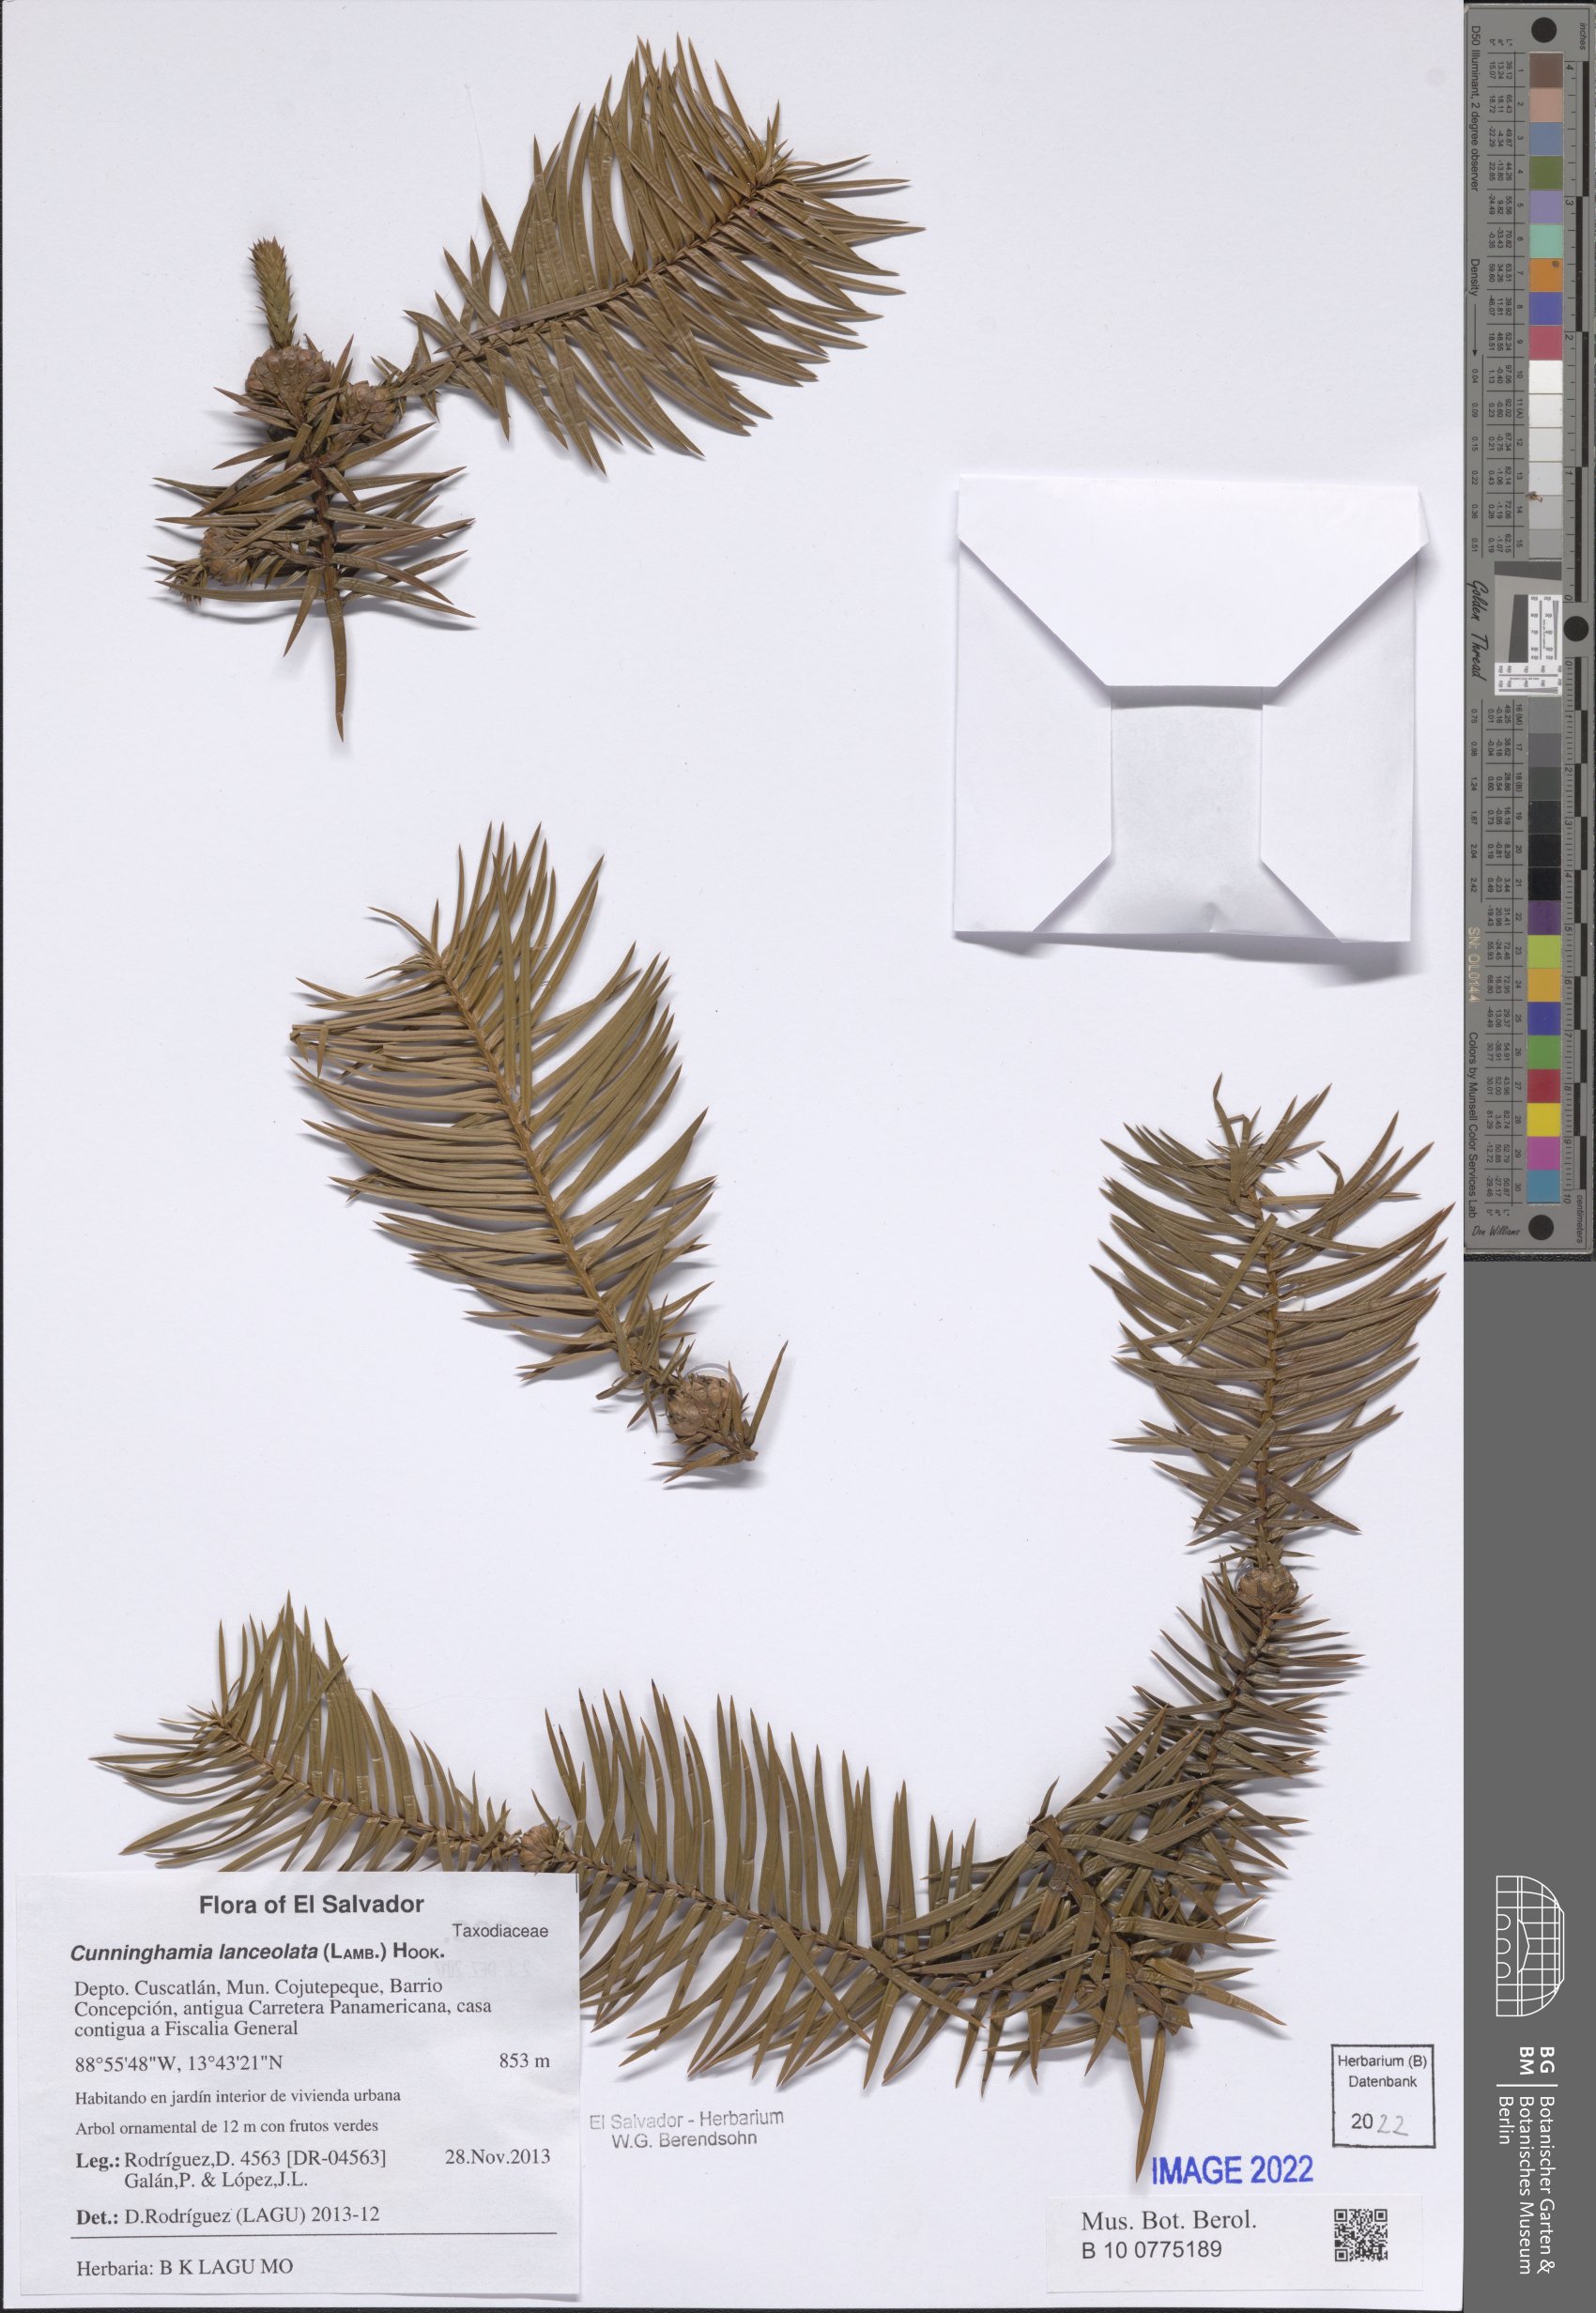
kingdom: Plantae
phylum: Tracheophyta
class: Pinopsida
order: Pinales
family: Cupressaceae
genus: Cunninghamia
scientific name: Cunninghamia lanceolata
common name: Chinese fir
